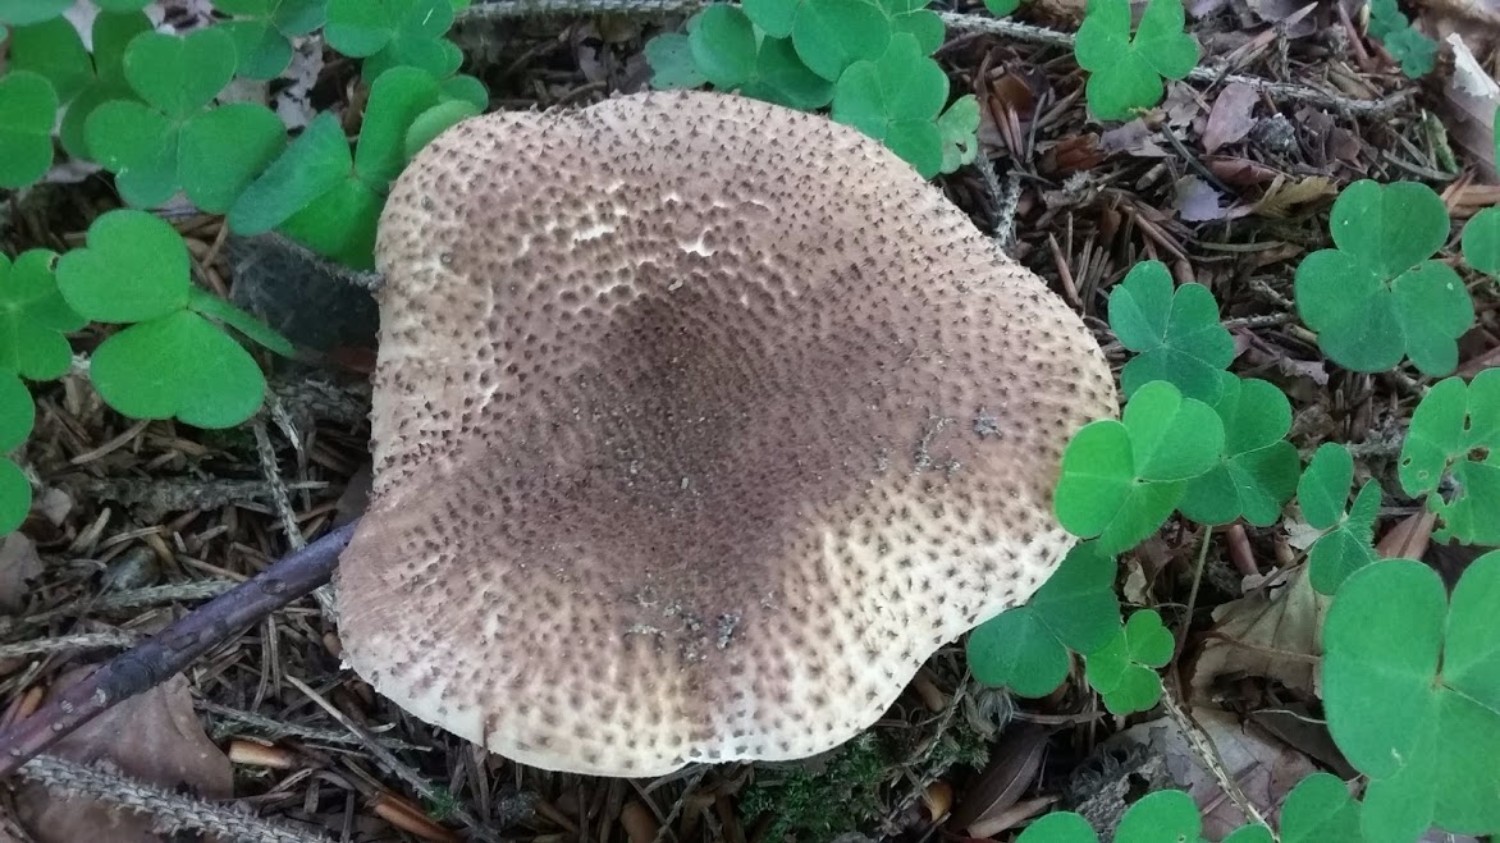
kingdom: Fungi
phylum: Basidiomycota
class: Agaricomycetes
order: Agaricales
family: Agaricaceae
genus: Echinoderma
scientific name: Echinoderma asperum
